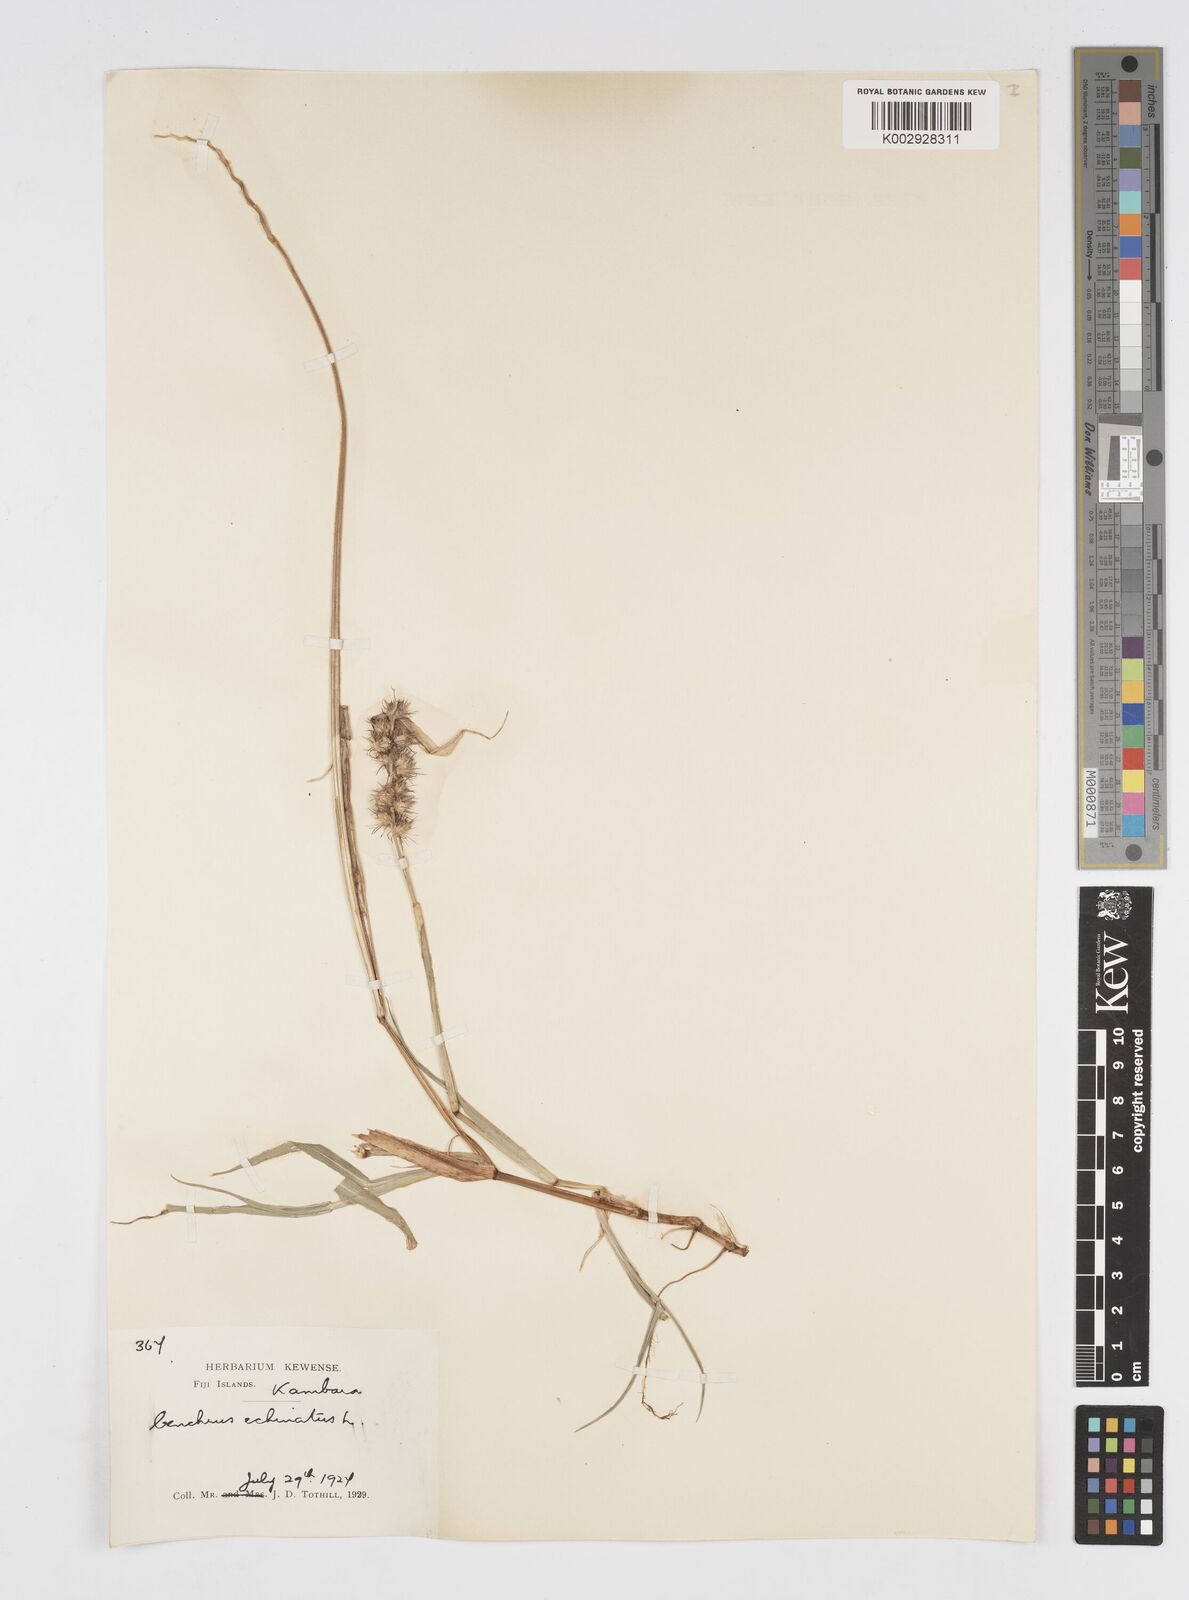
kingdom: Plantae
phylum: Tracheophyta
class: Liliopsida
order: Poales
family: Poaceae
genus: Cenchrus
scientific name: Cenchrus echinatus
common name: Southern sandbur
